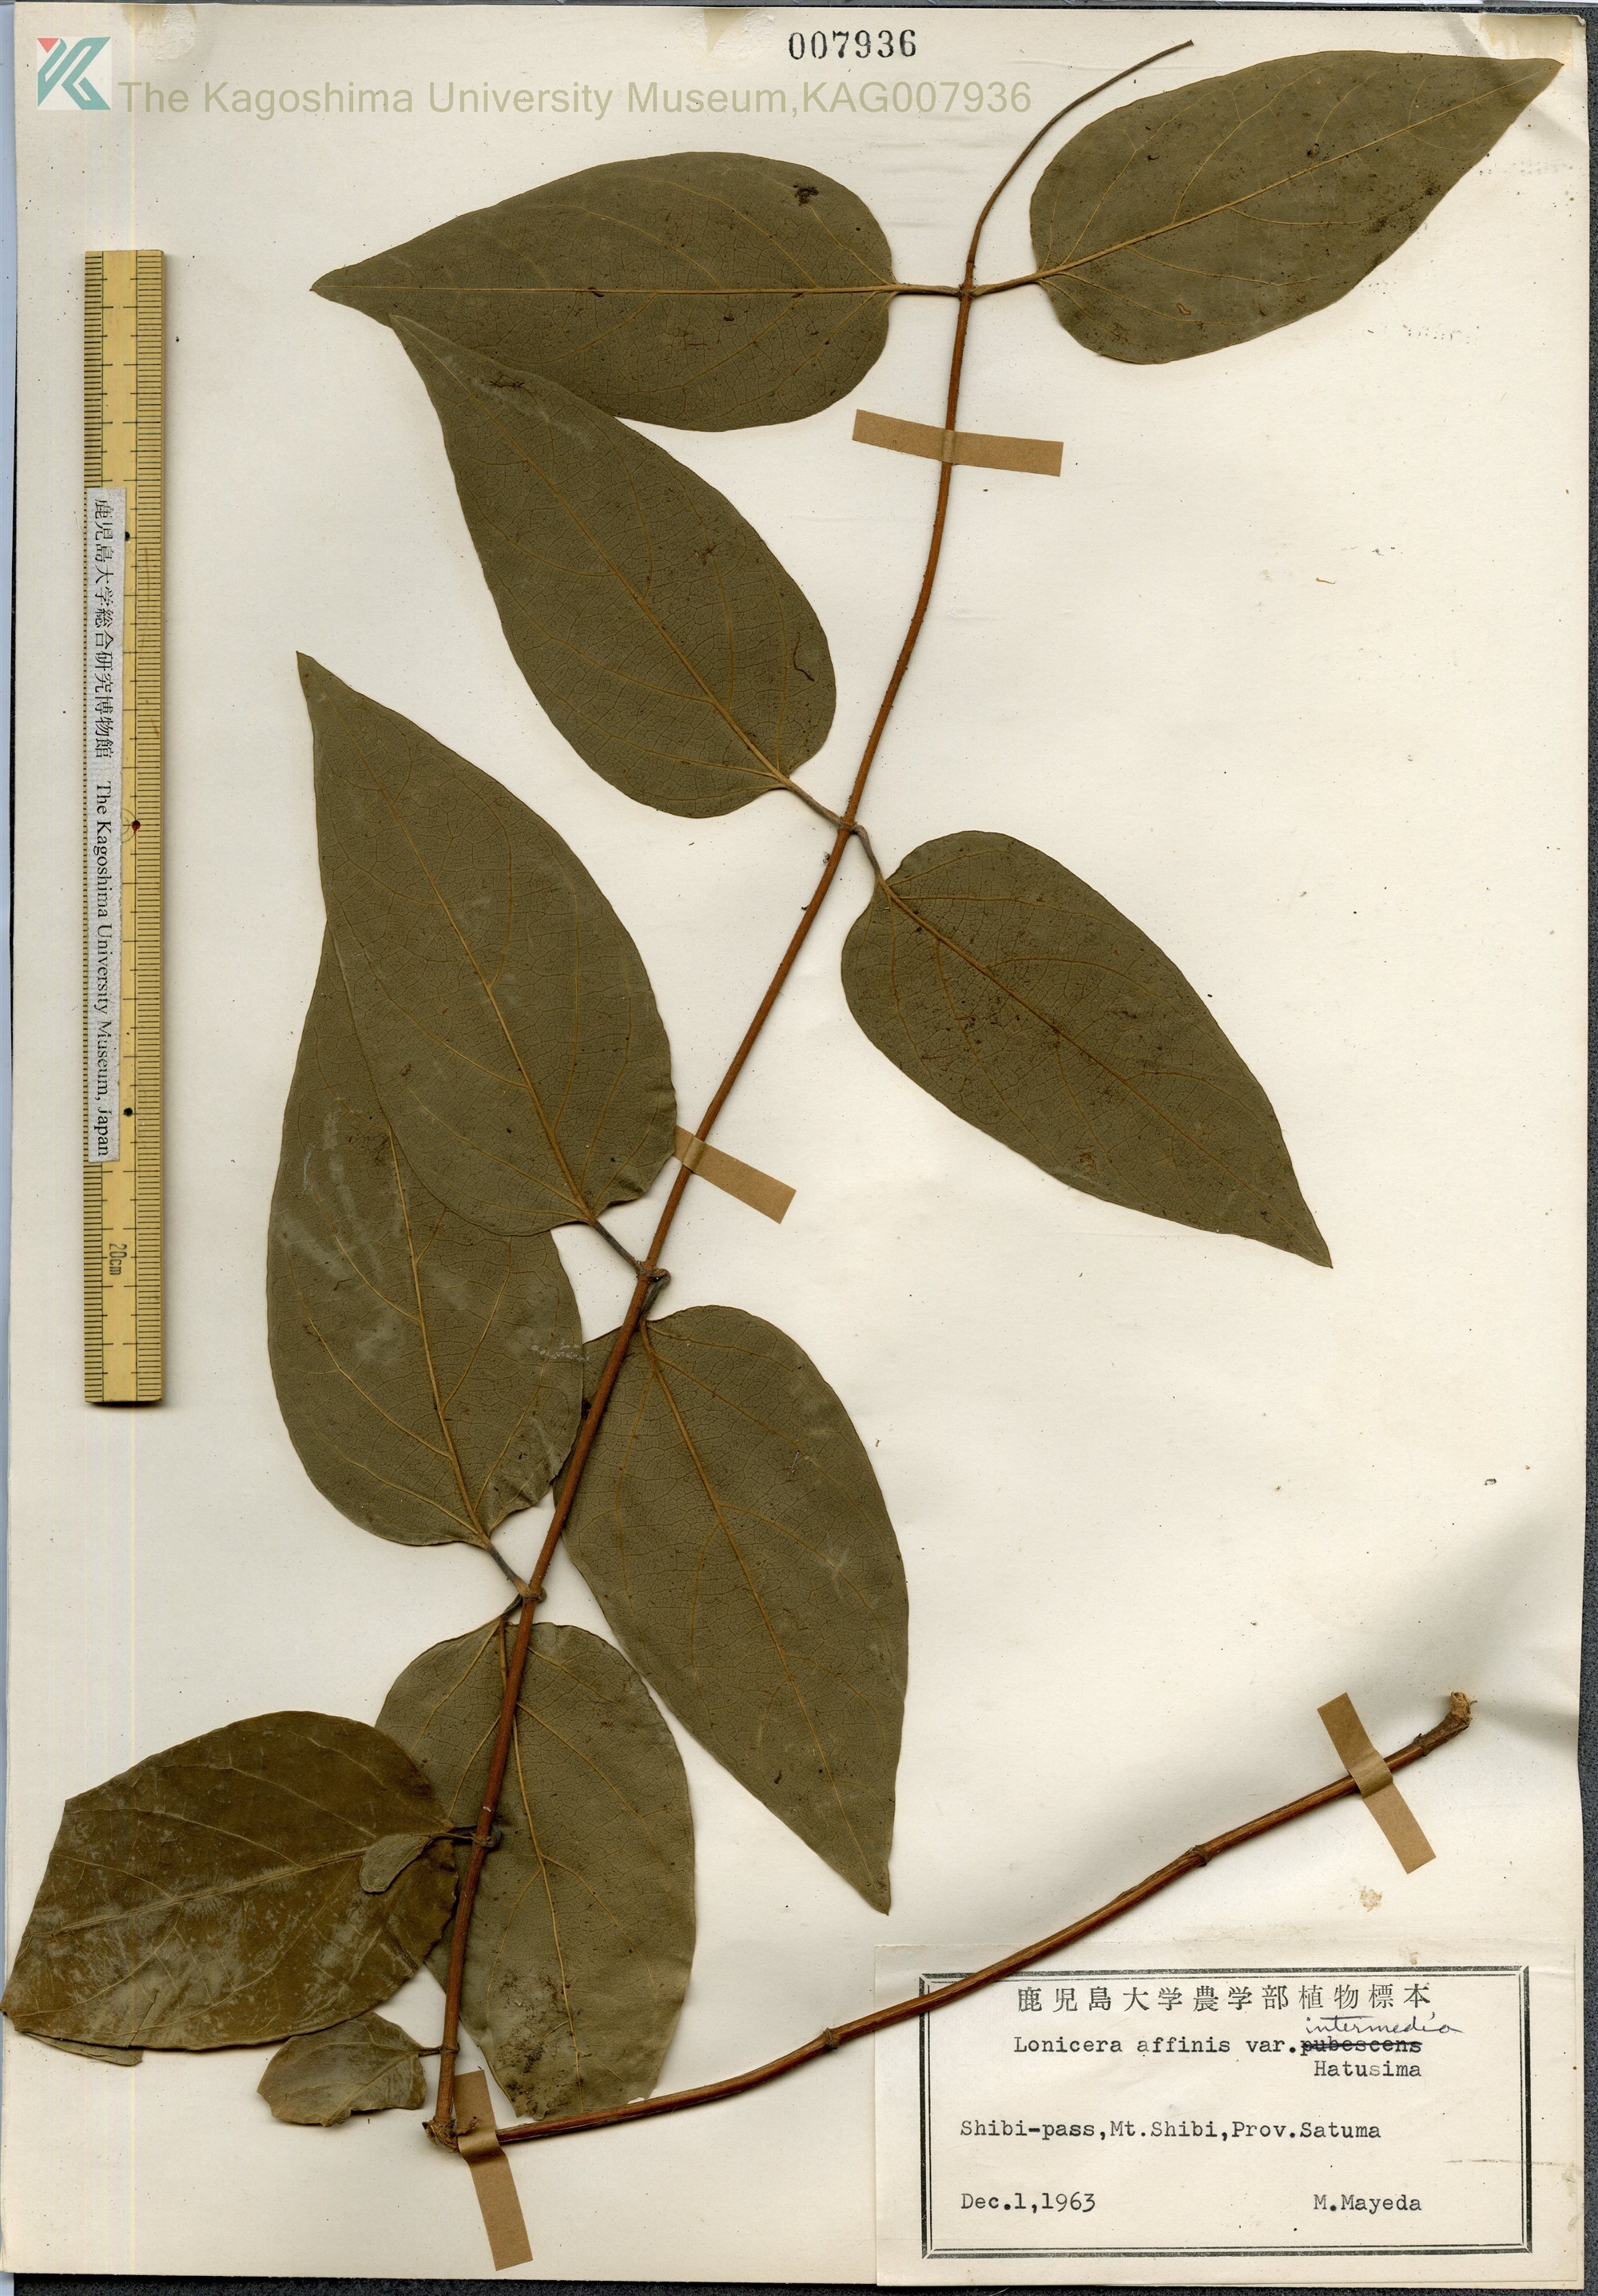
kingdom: Plantae
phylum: Tracheophyta
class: Magnoliopsida
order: Dipsacales
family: Caprifoliaceae
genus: Lonicera
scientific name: Lonicera affinis
